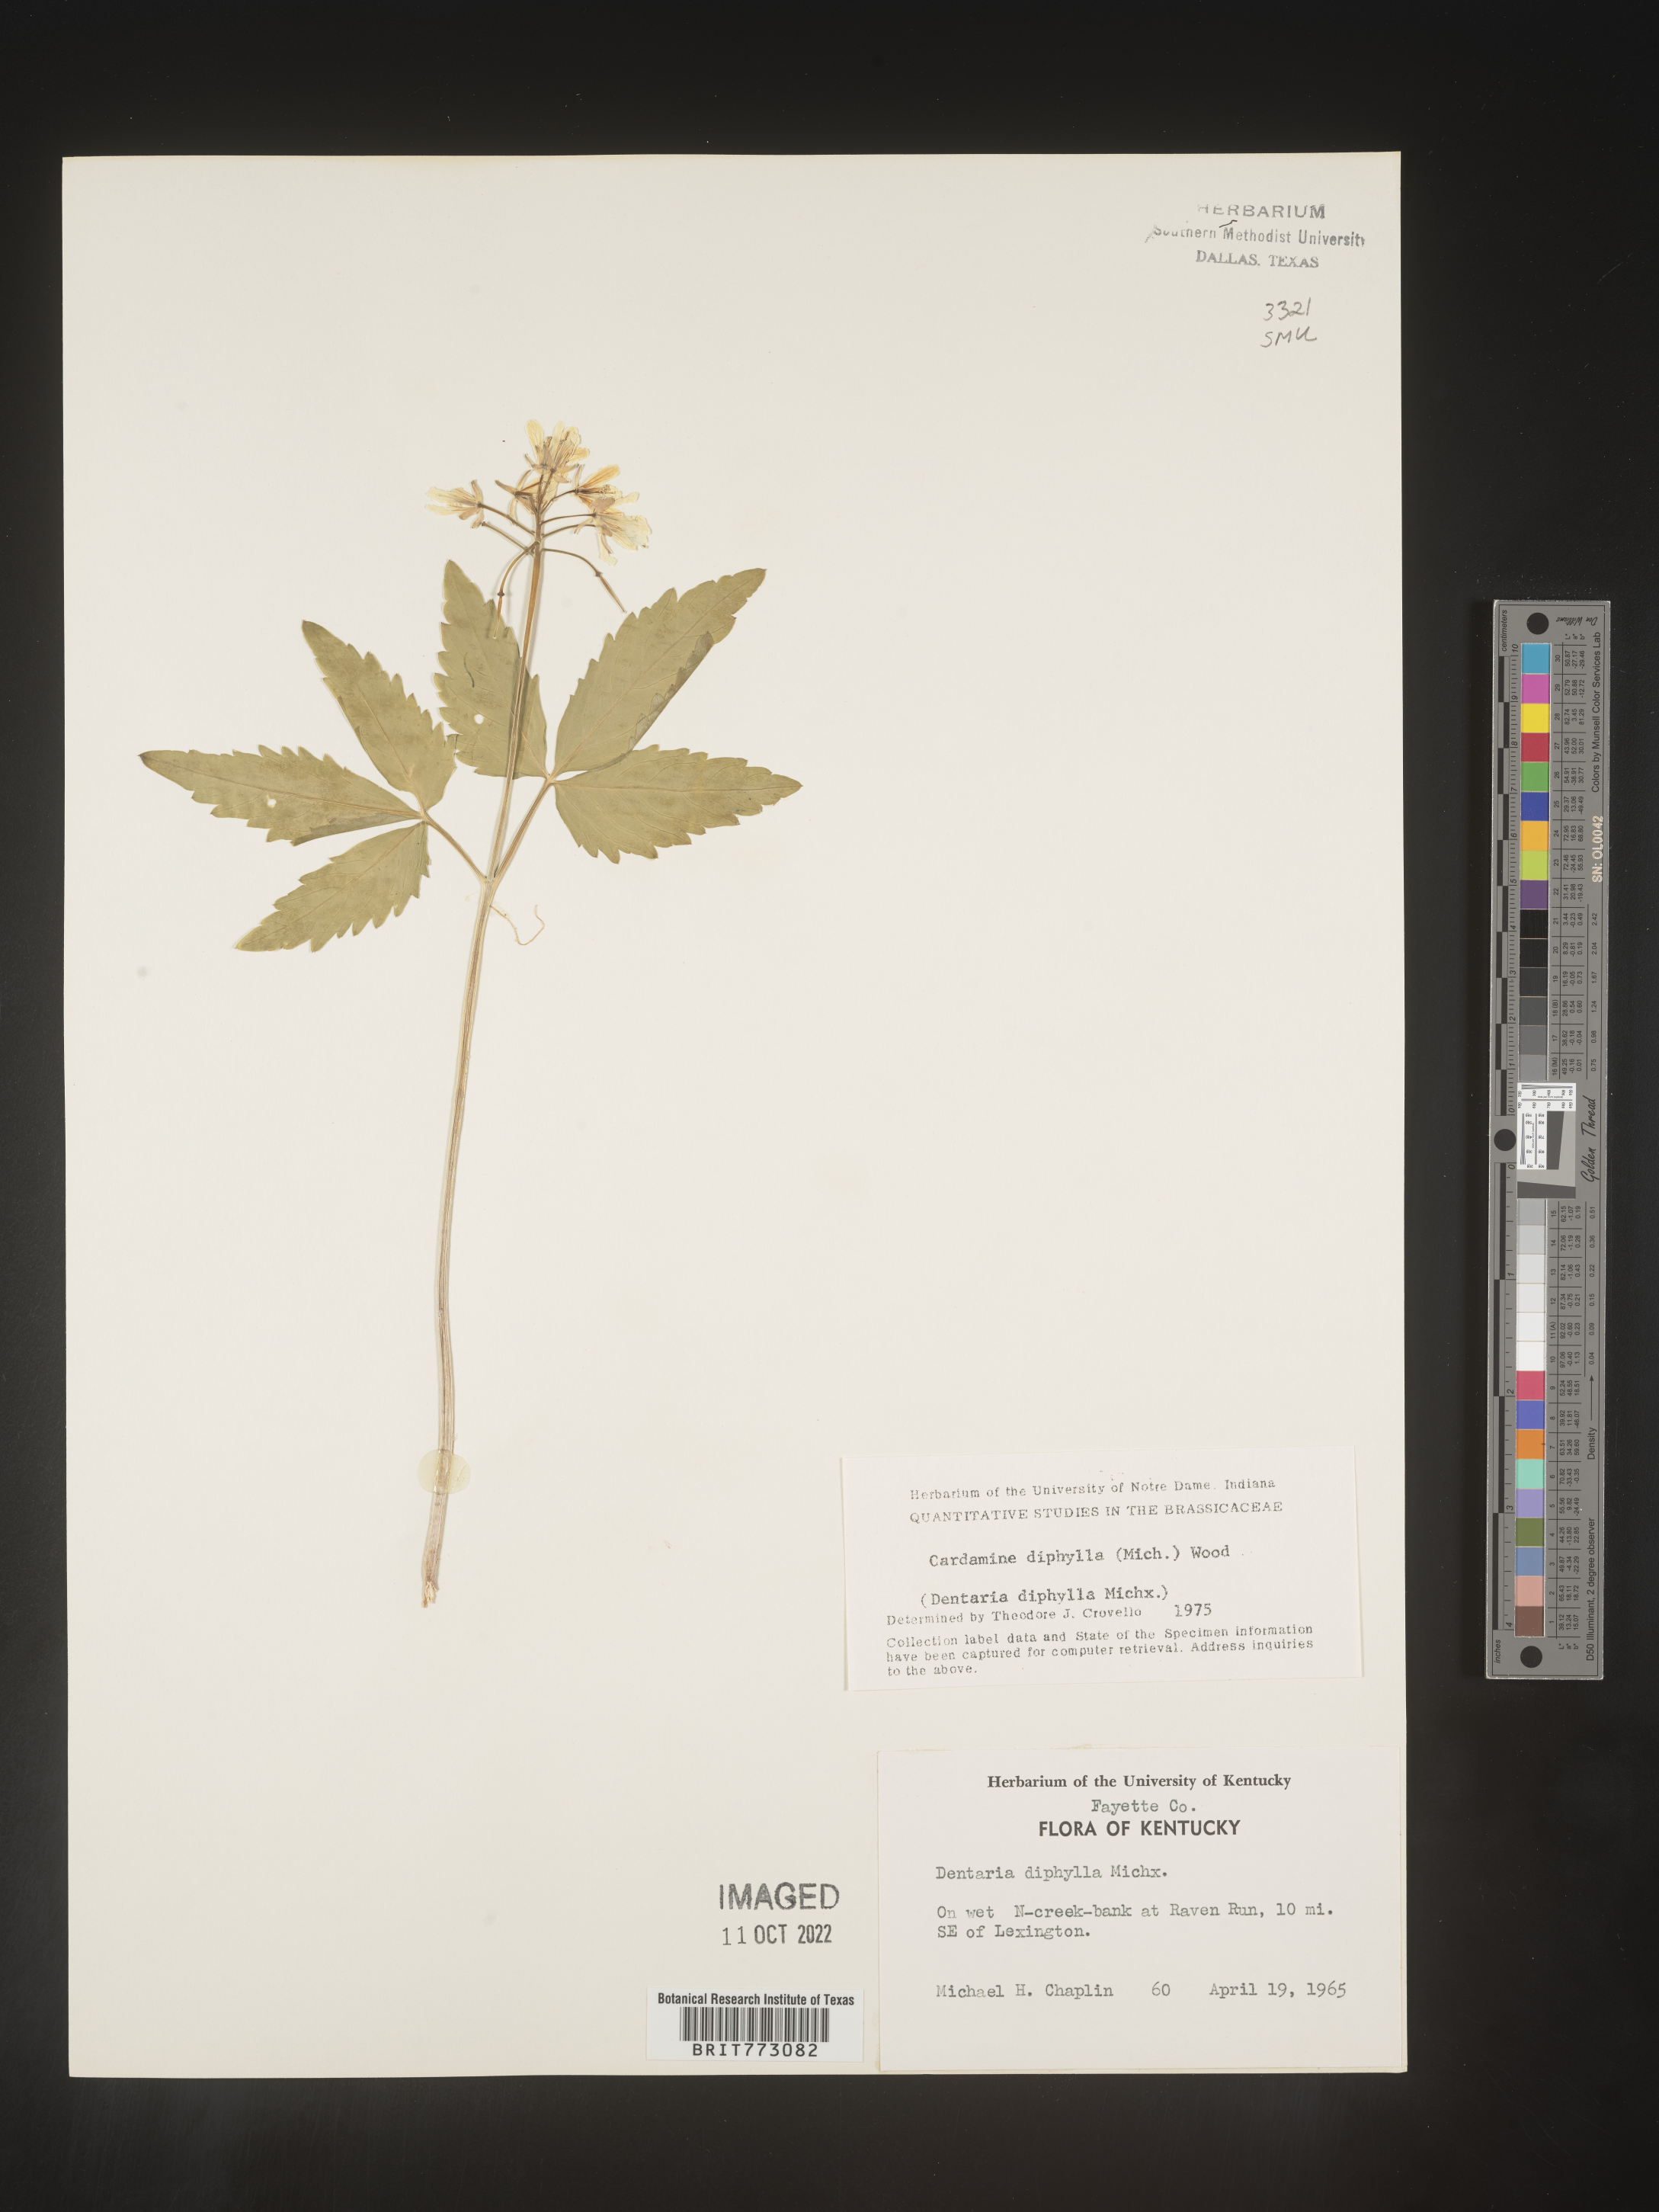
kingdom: Plantae
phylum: Tracheophyta
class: Magnoliopsida
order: Brassicales
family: Brassicaceae
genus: Cardamine
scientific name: Cardamine diphylla
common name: Broad-leaved toothwort
